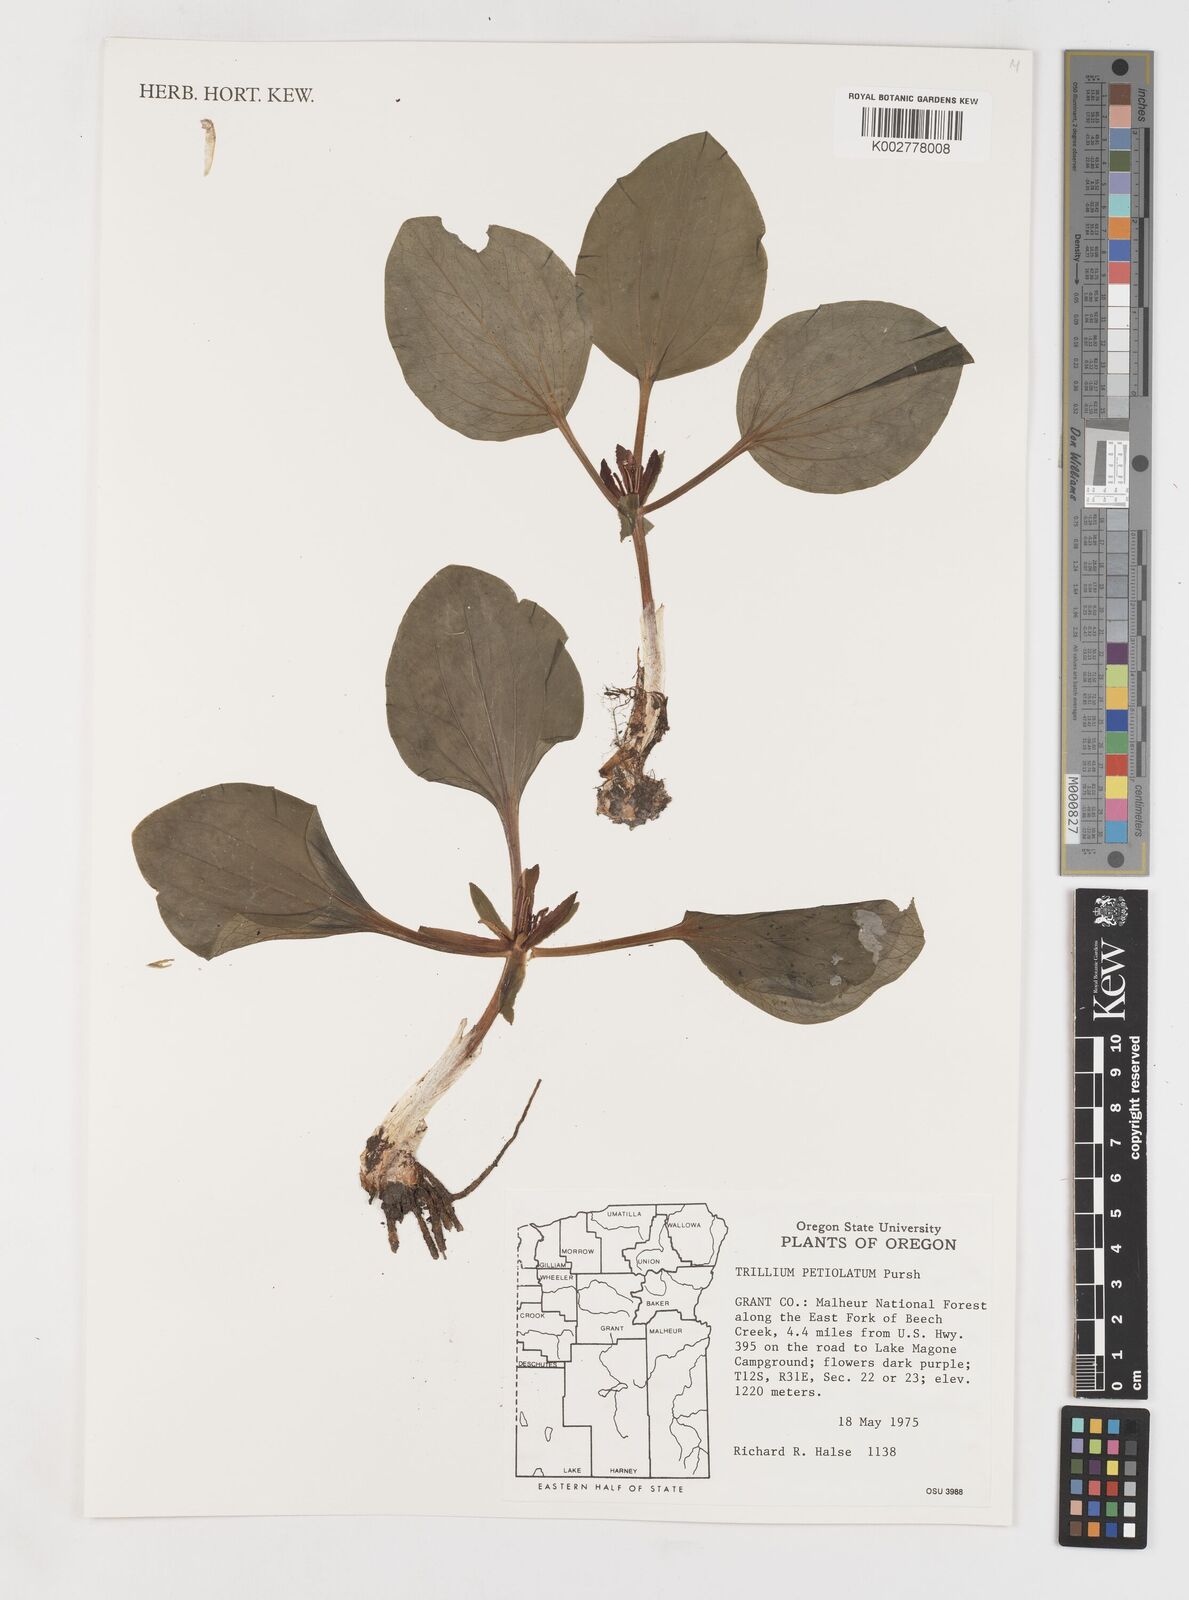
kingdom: Plantae
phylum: Tracheophyta
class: Liliopsida
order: Liliales
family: Melanthiaceae
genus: Trillium
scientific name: Trillium petiolatum
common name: Idaho trillium
